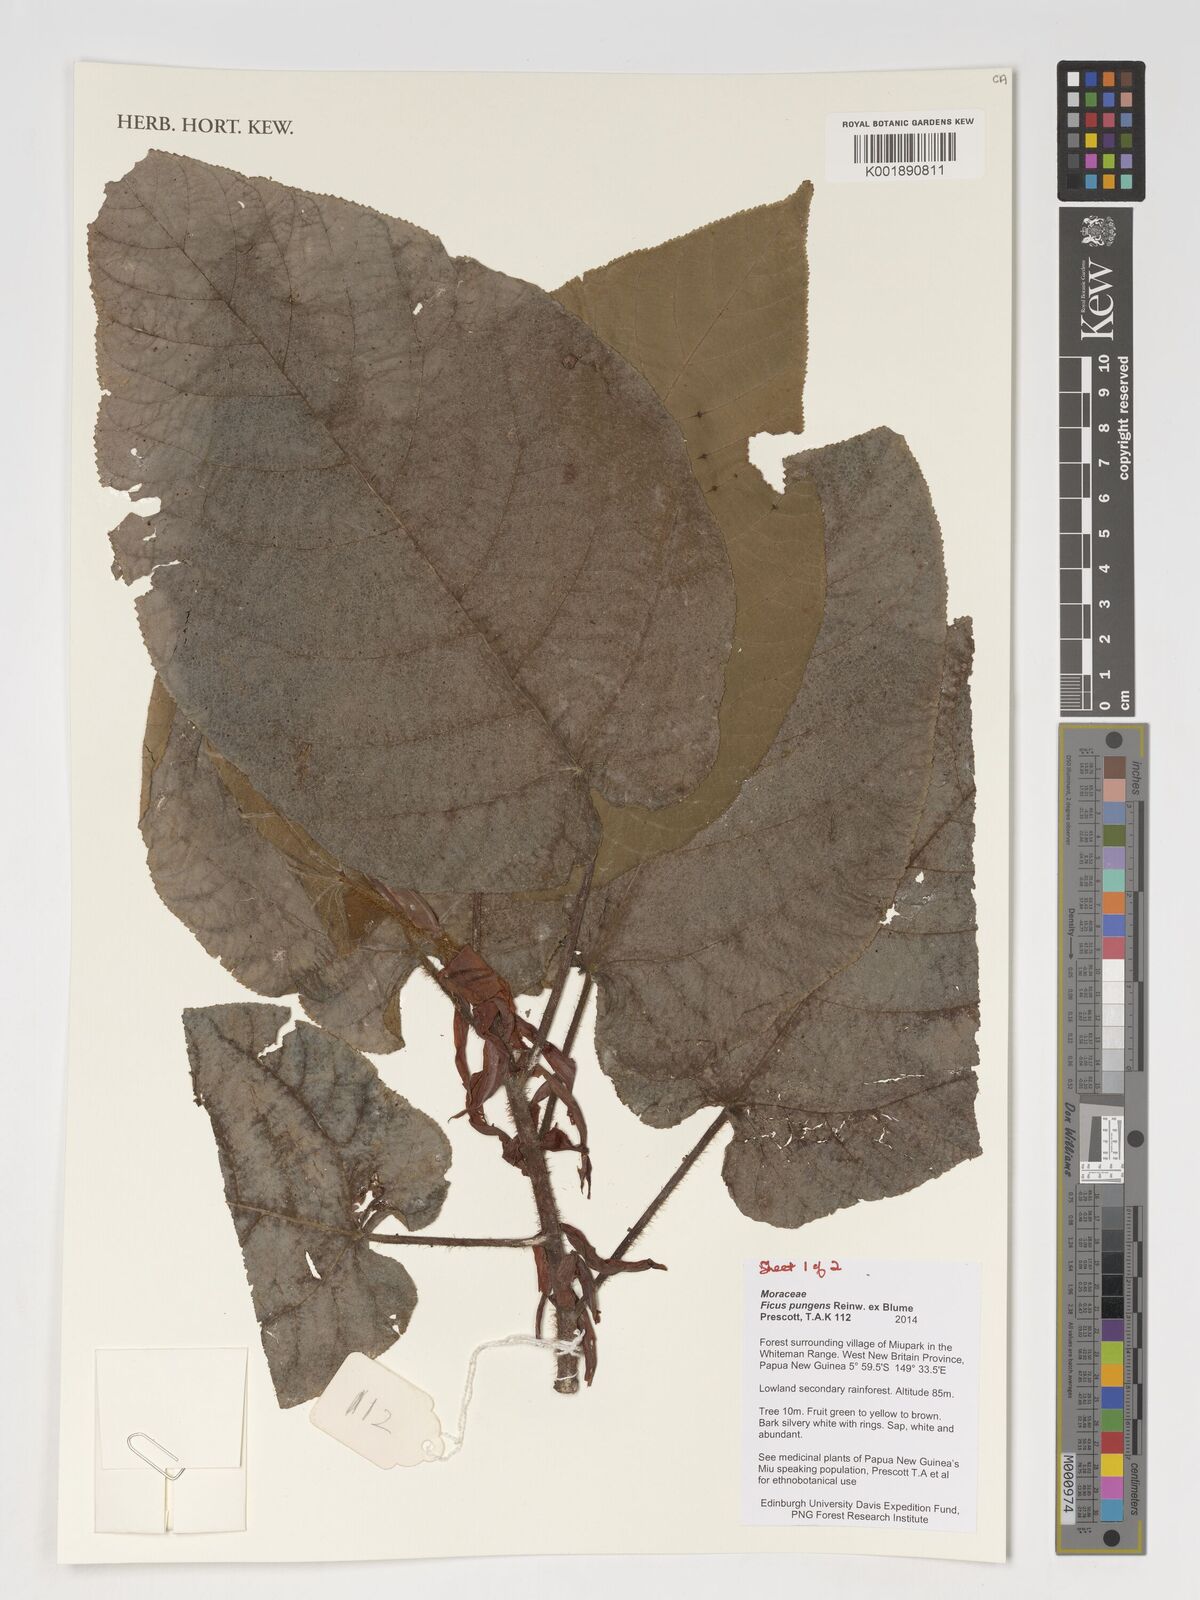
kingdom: Plantae
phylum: Tracheophyta
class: Magnoliopsida
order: Rosales
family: Moraceae
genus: Ficus
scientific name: Ficus pungens
